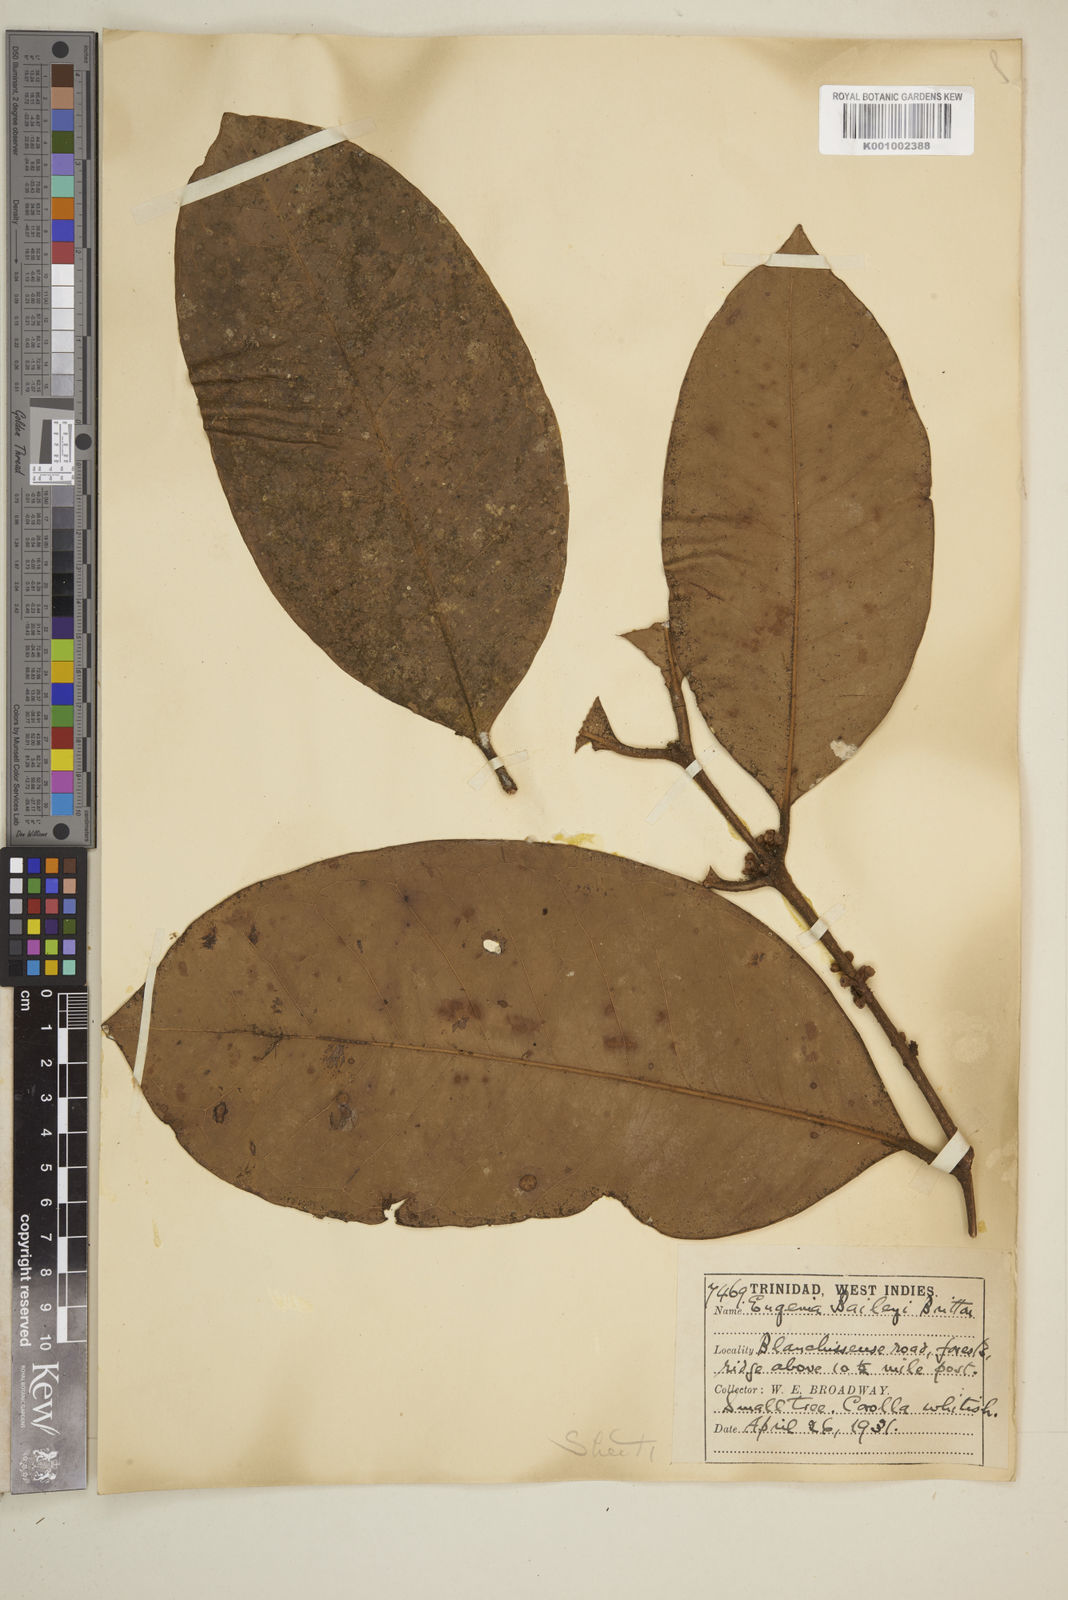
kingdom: Plantae
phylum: Tracheophyta
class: Magnoliopsida
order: Myrtales
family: Myrtaceae
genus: Eugenia
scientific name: Eugenia baileyi
